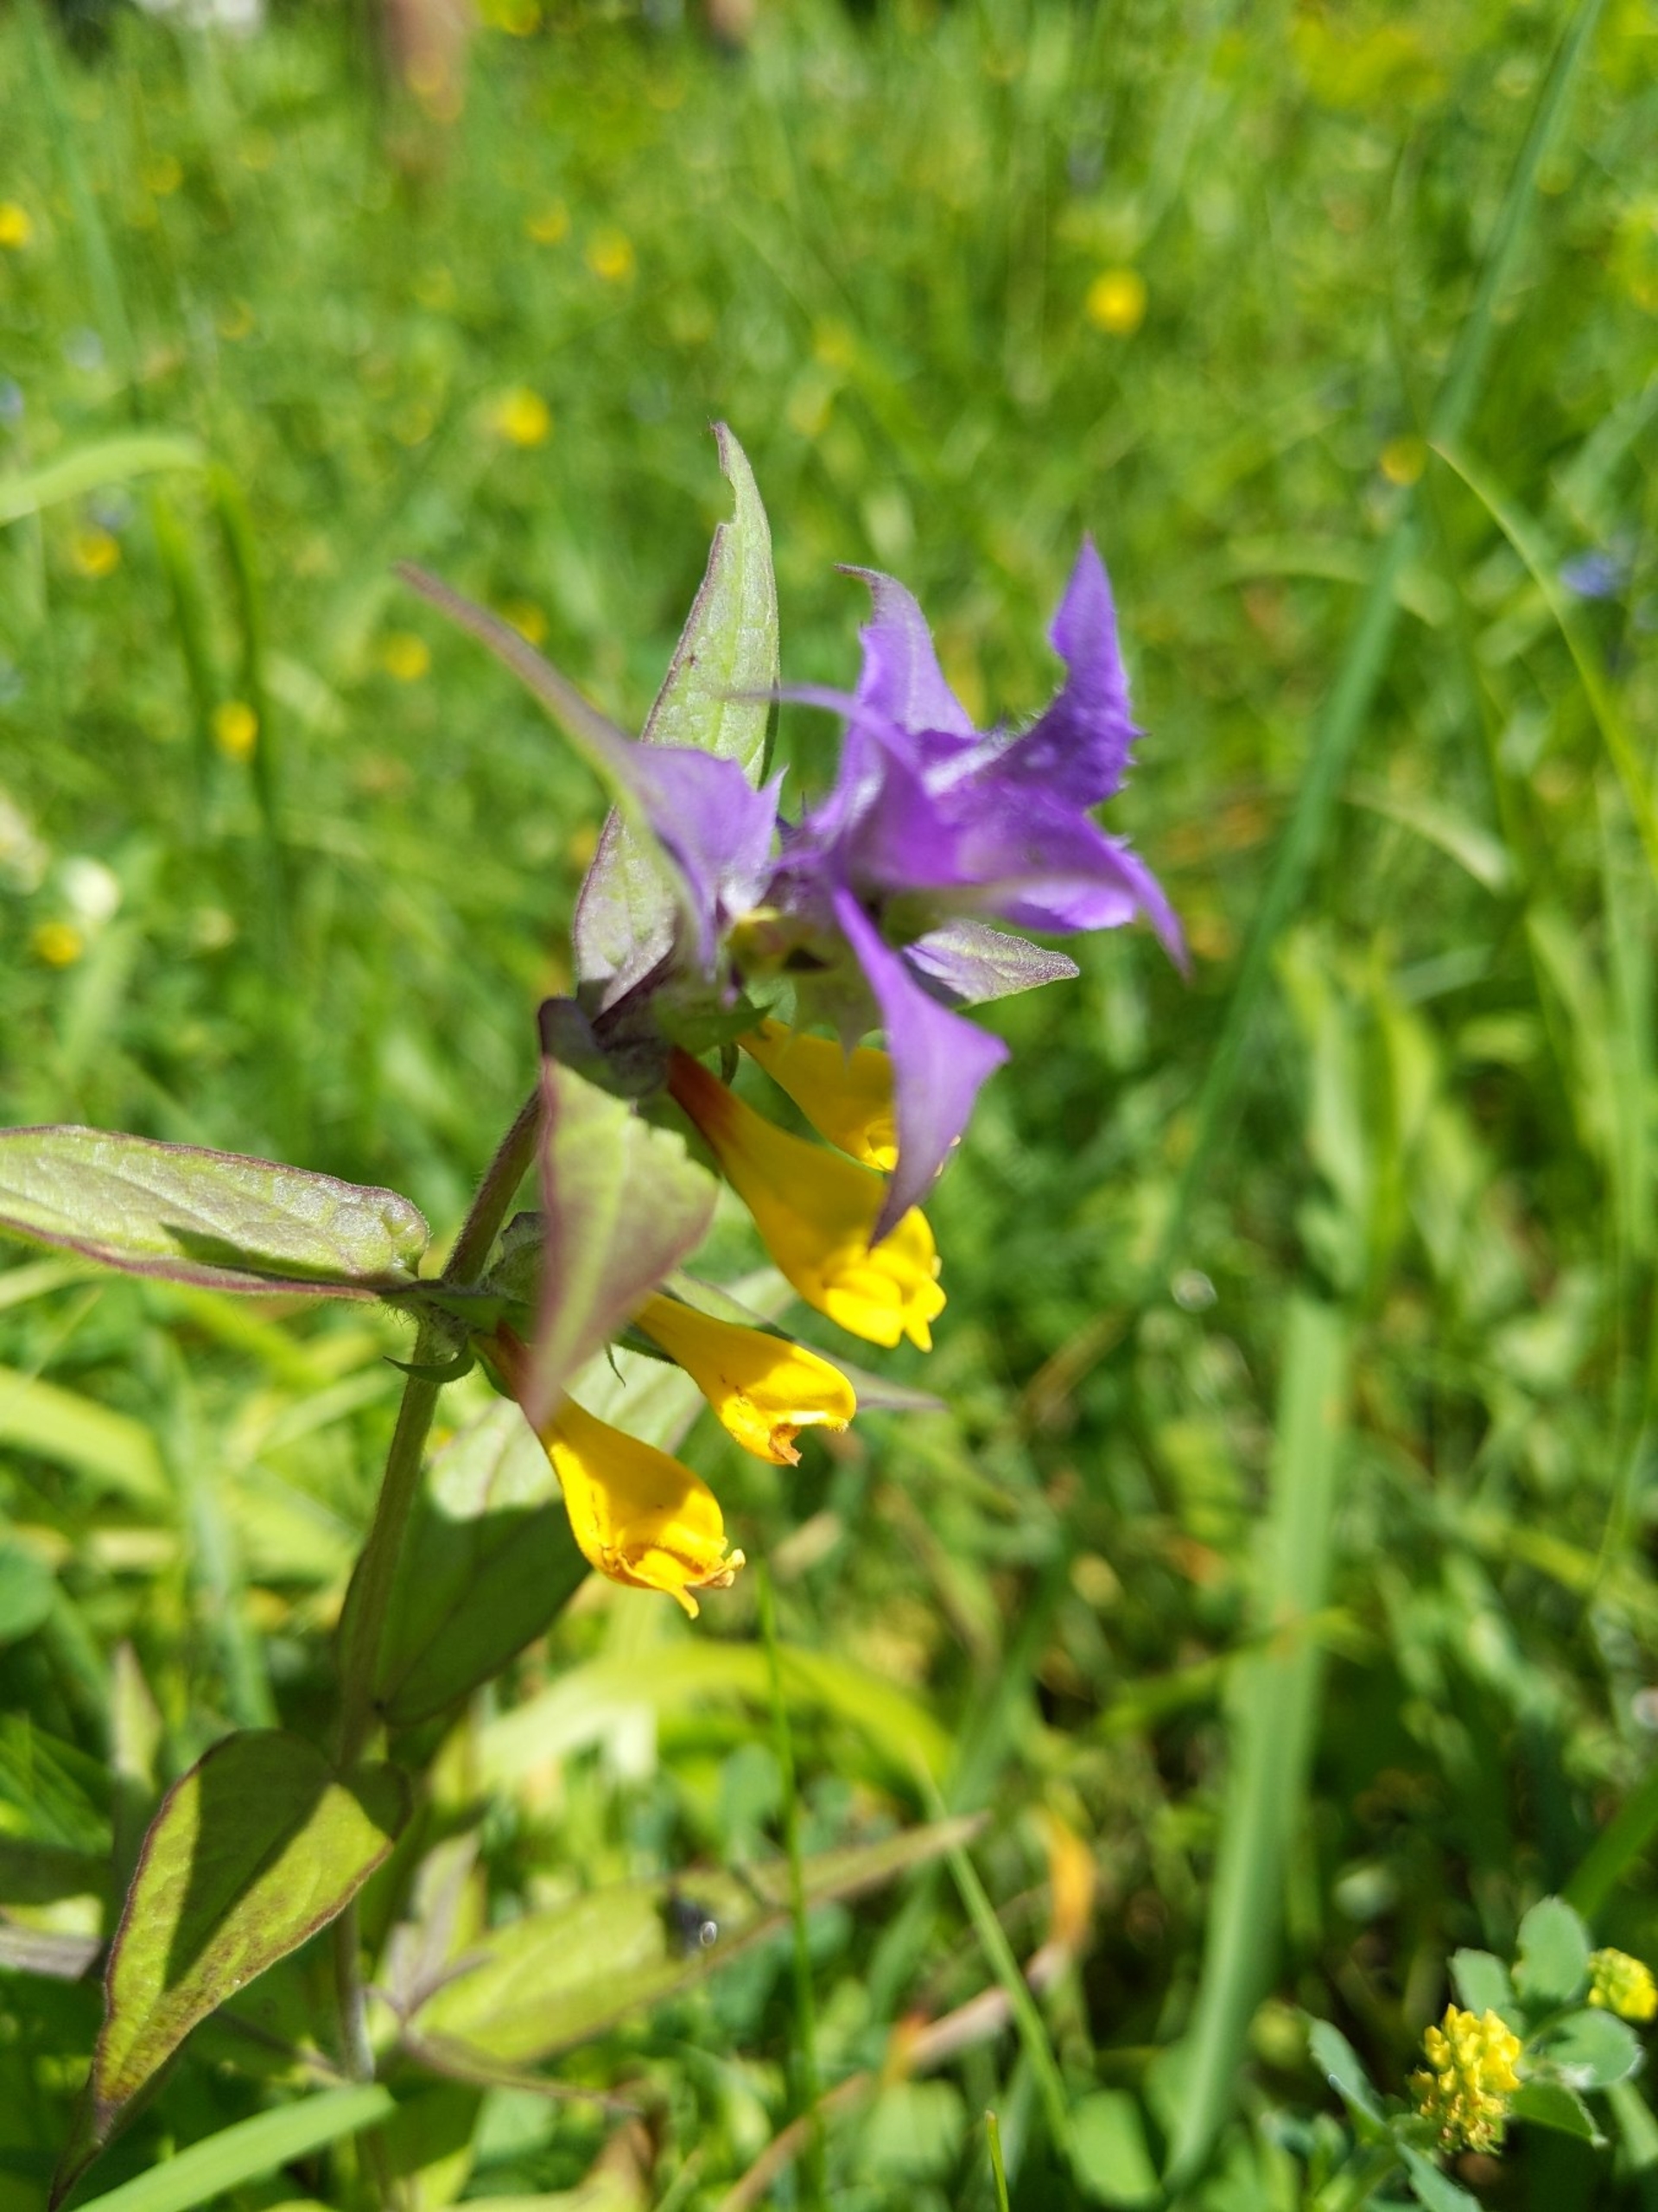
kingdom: Plantae
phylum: Tracheophyta
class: Magnoliopsida
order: Lamiales
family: Orobanchaceae
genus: Melampyrum
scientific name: Melampyrum nemorosum
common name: Blåtoppet kohvede
